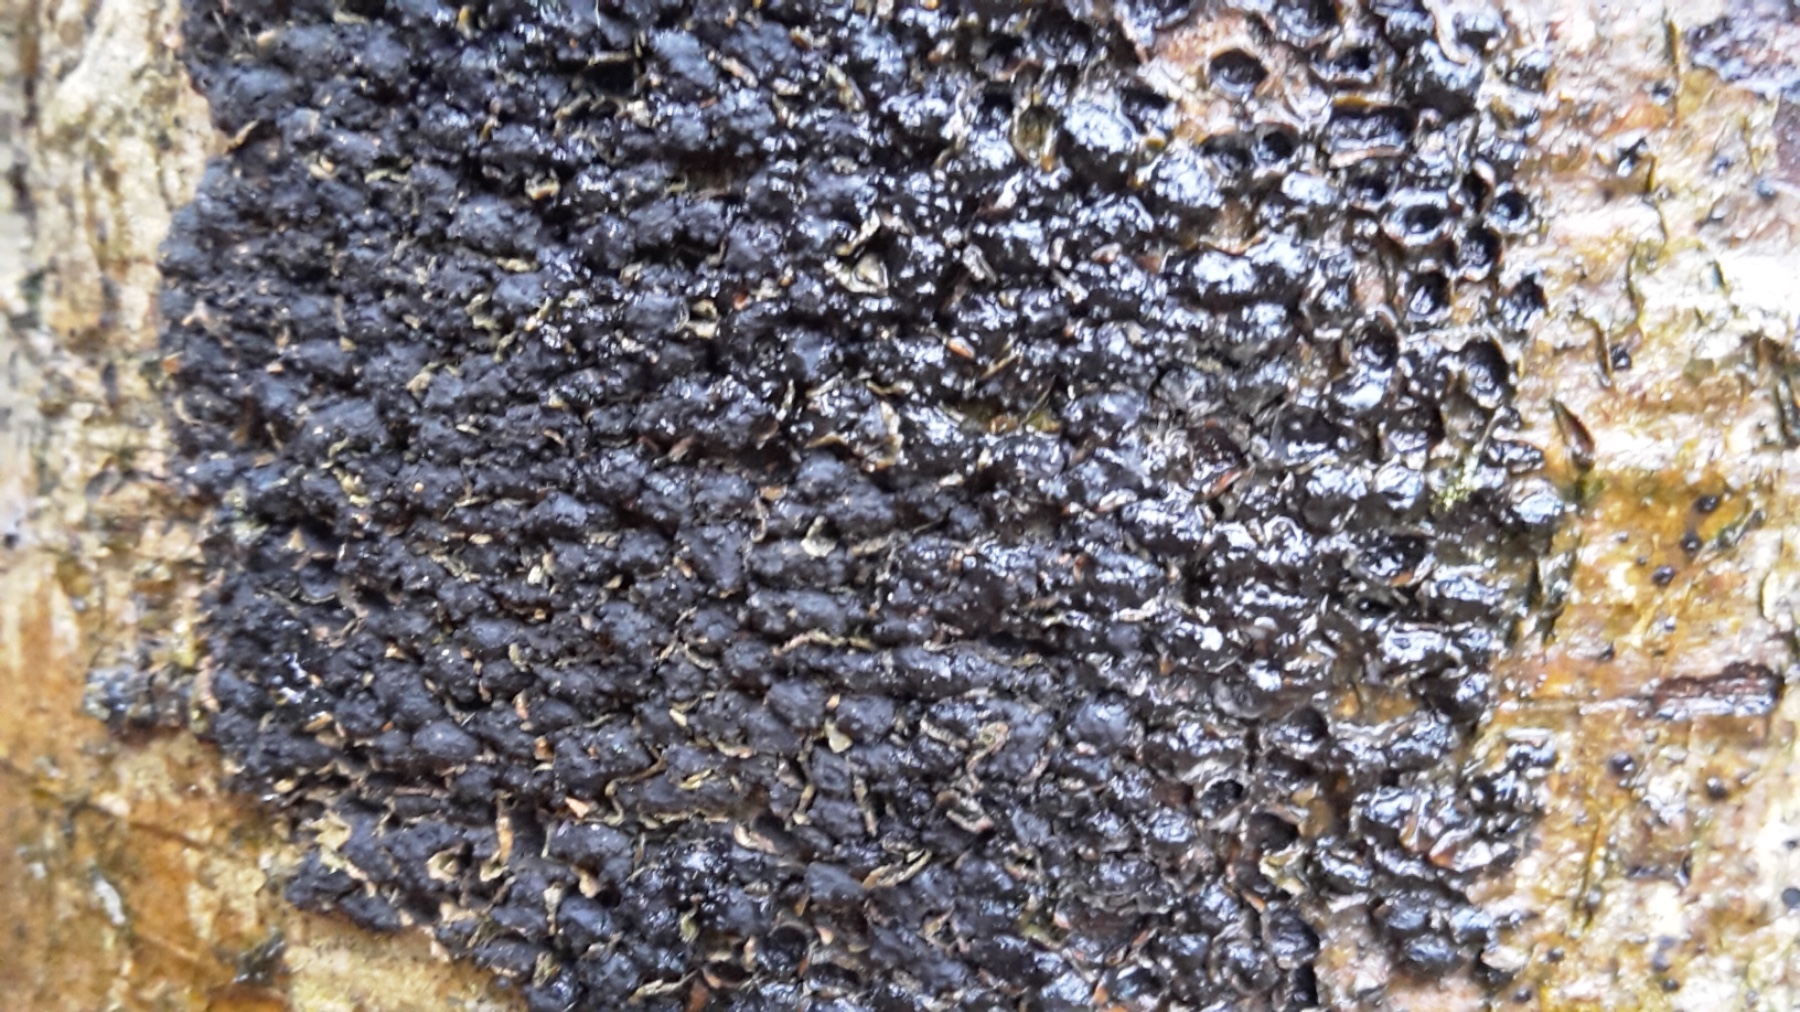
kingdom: Fungi
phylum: Ascomycota
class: Sordariomycetes
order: Xylariales
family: Melogrammataceae
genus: Melogramma
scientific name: Melogramma spiniferum
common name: bøgefod-kulhals
